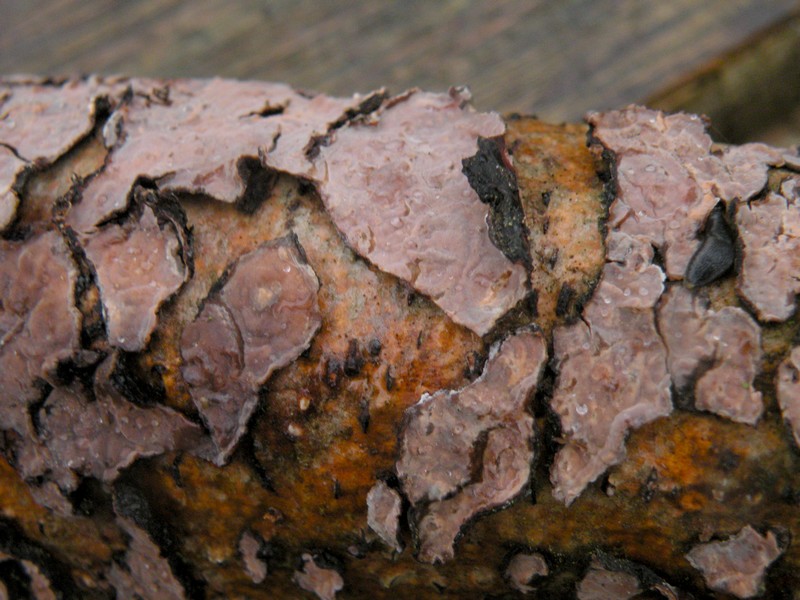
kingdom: Fungi
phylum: Basidiomycota
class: Agaricomycetes
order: Russulales
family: Peniophoraceae
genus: Peniophora
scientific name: Peniophora quercina
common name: ege-voksskind
